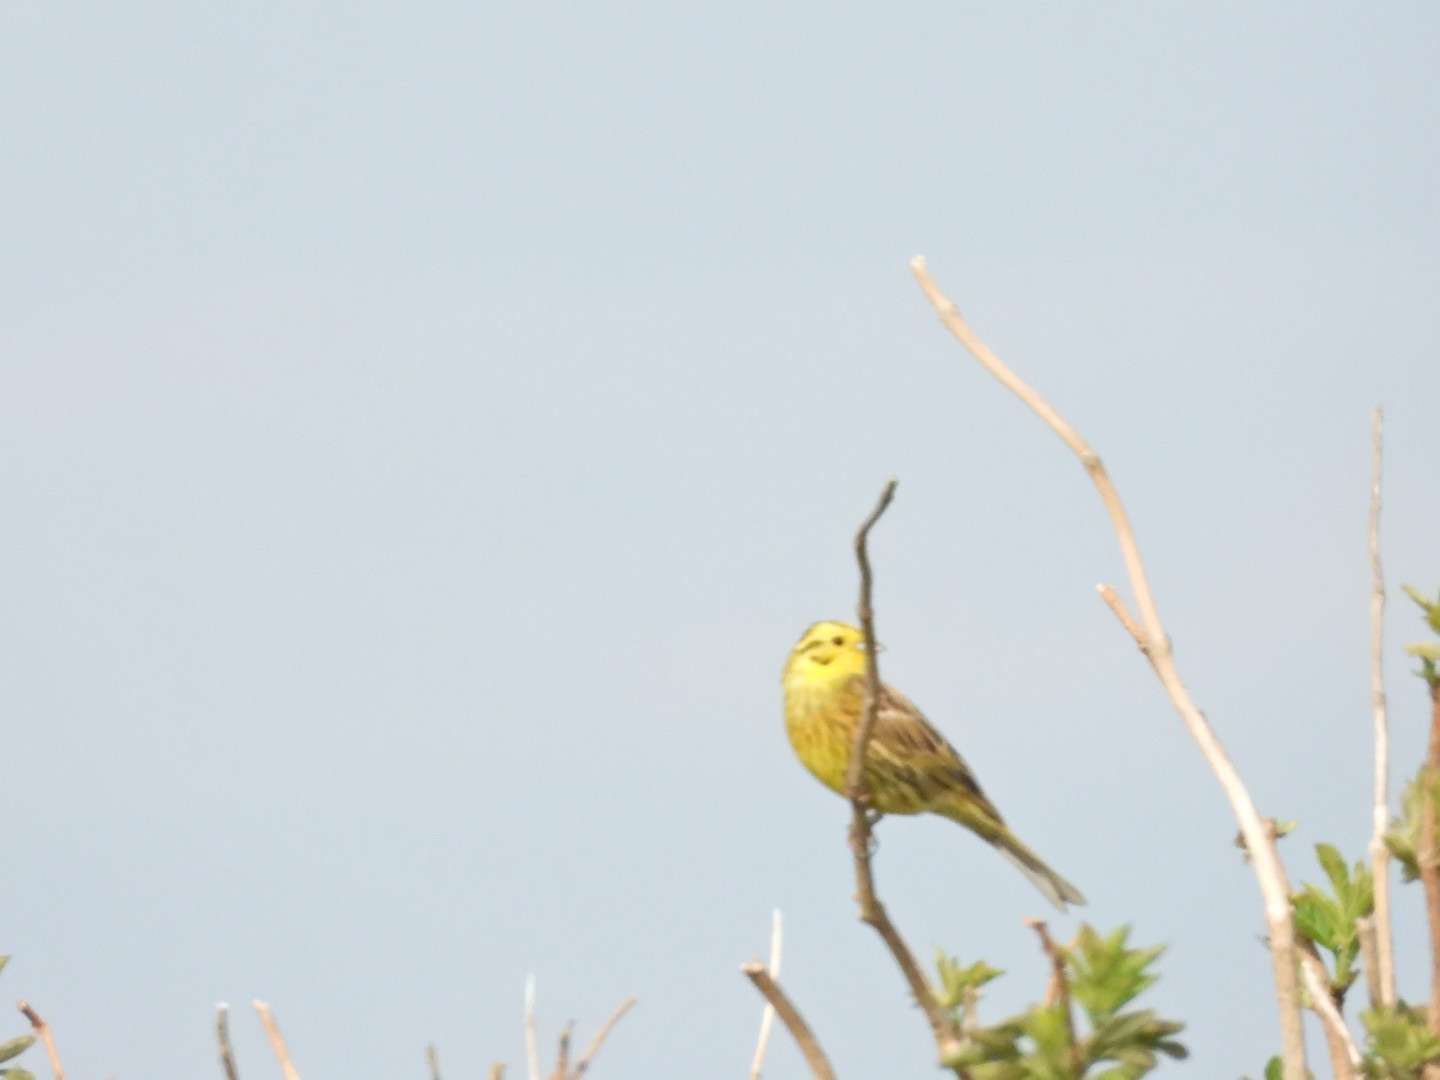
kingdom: Animalia
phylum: Chordata
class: Aves
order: Passeriformes
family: Emberizidae
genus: Emberiza
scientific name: Emberiza citrinella
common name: Gulspurv
